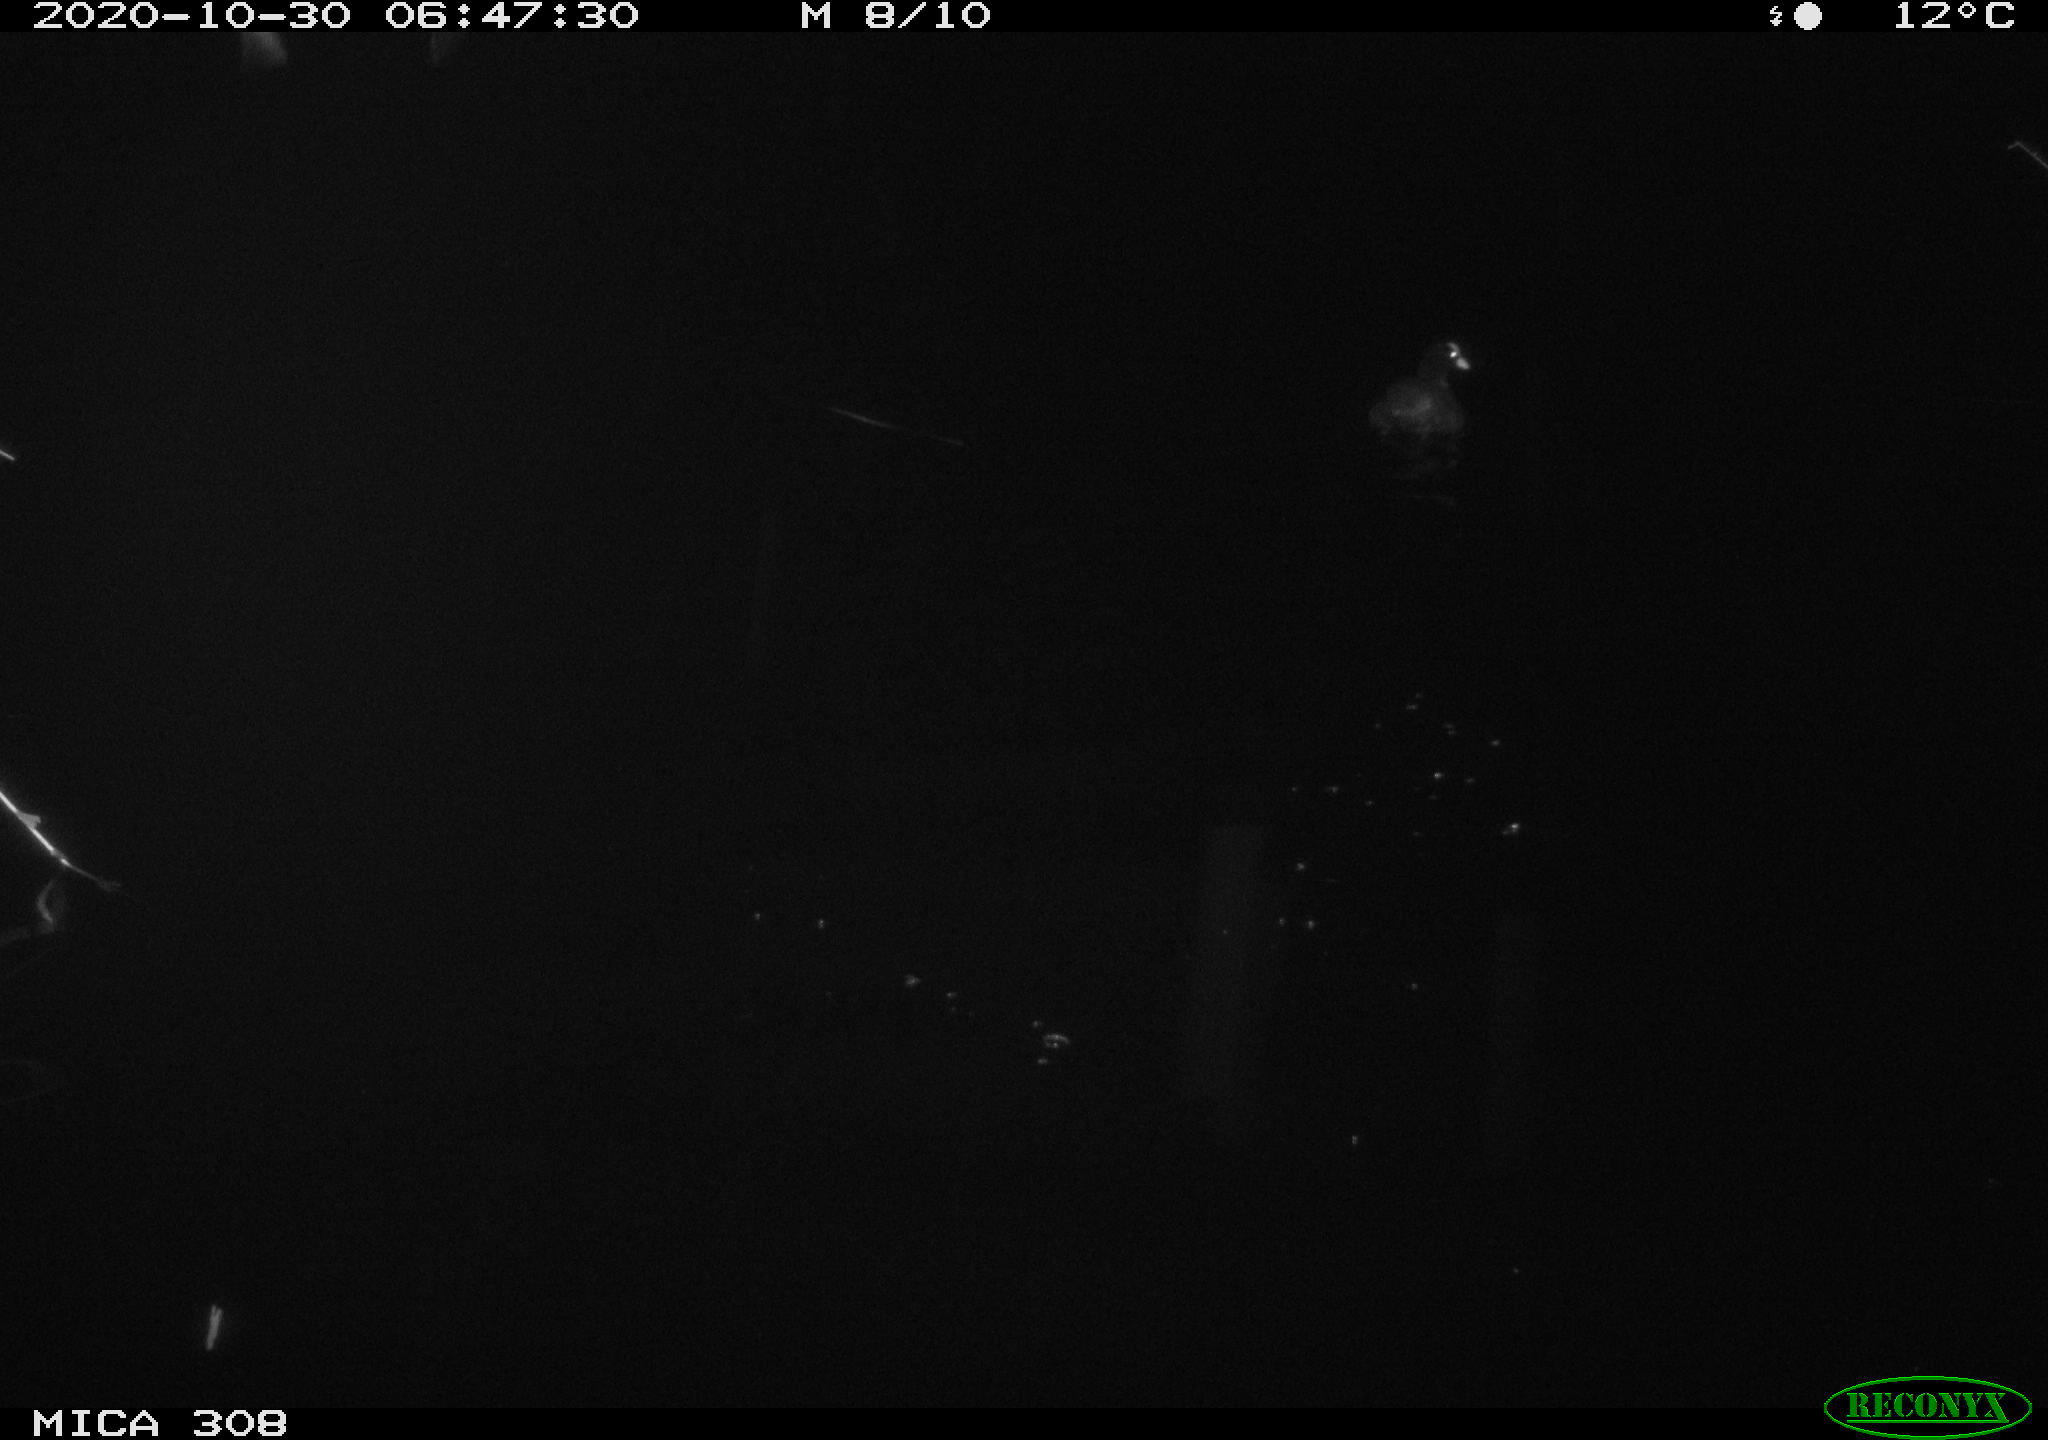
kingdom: Animalia
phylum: Chordata
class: Aves
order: Gruiformes
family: Rallidae
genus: Fulica
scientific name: Fulica atra
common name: Eurasian coot
